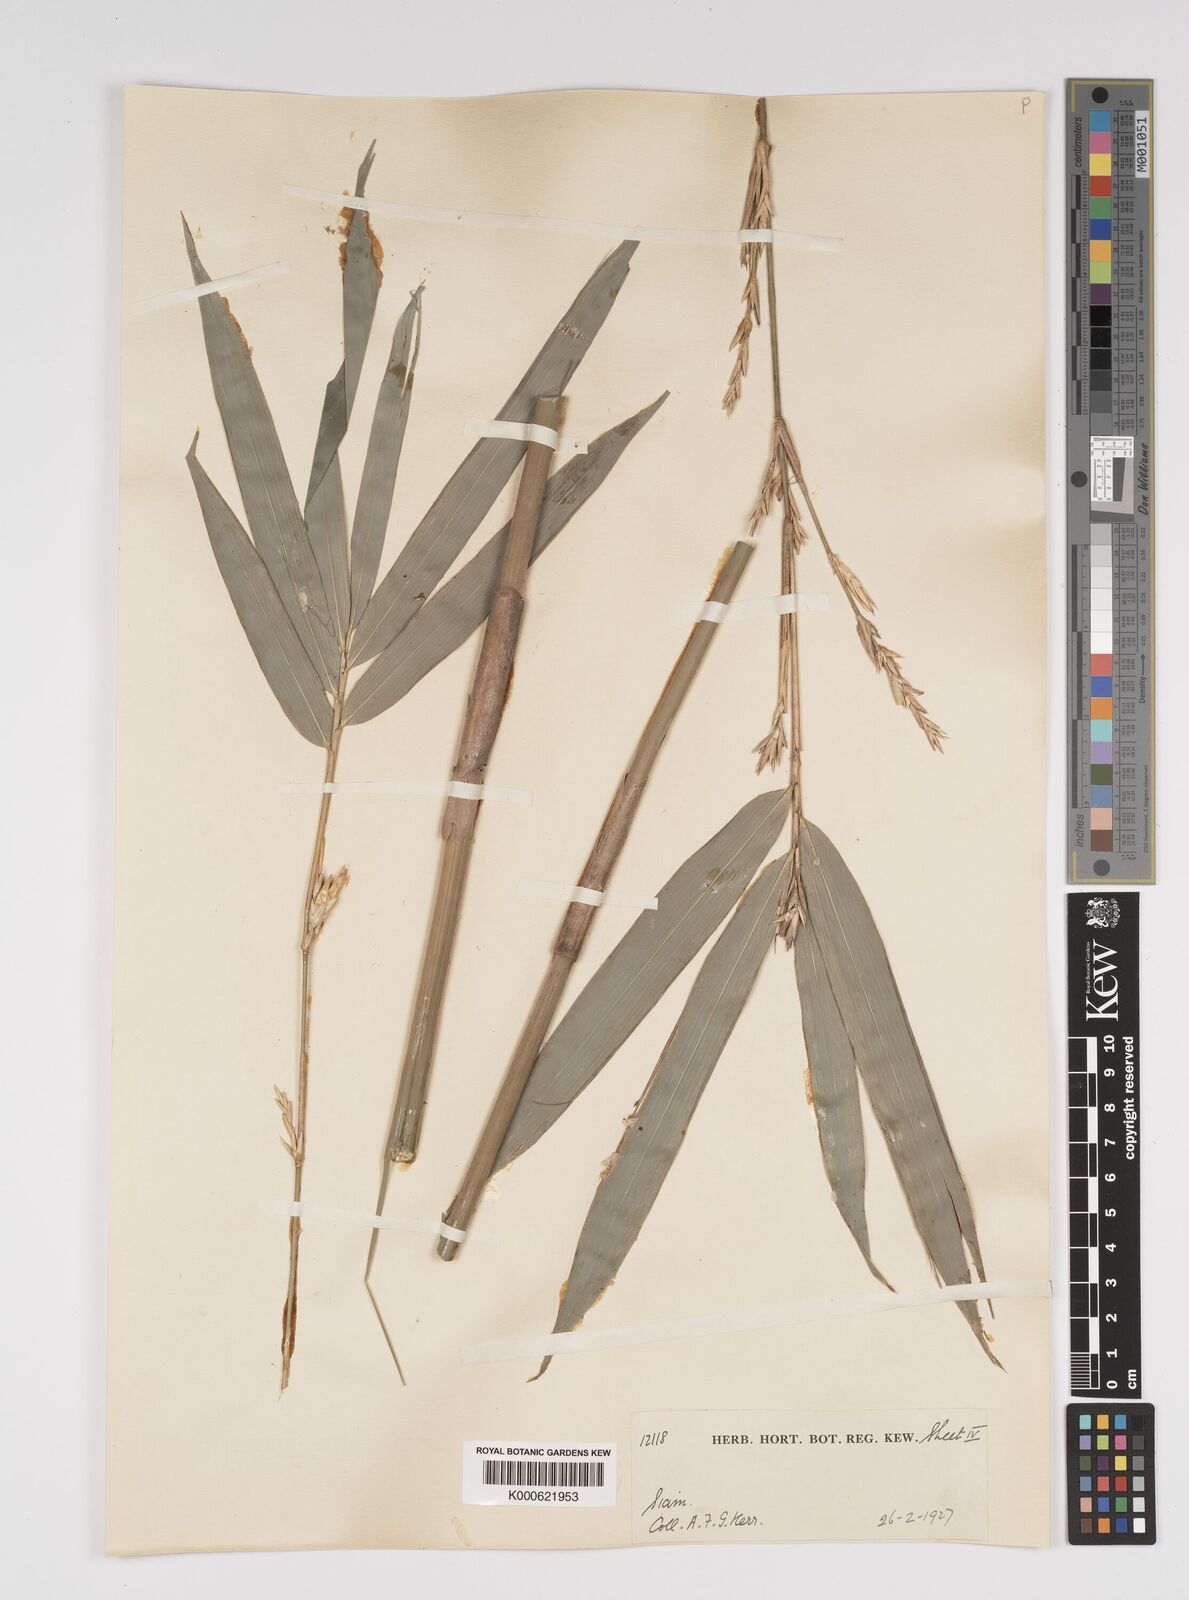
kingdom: Plantae
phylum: Tracheophyta
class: Liliopsida
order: Poales
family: Poaceae
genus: Bambusa
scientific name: Bambusa
